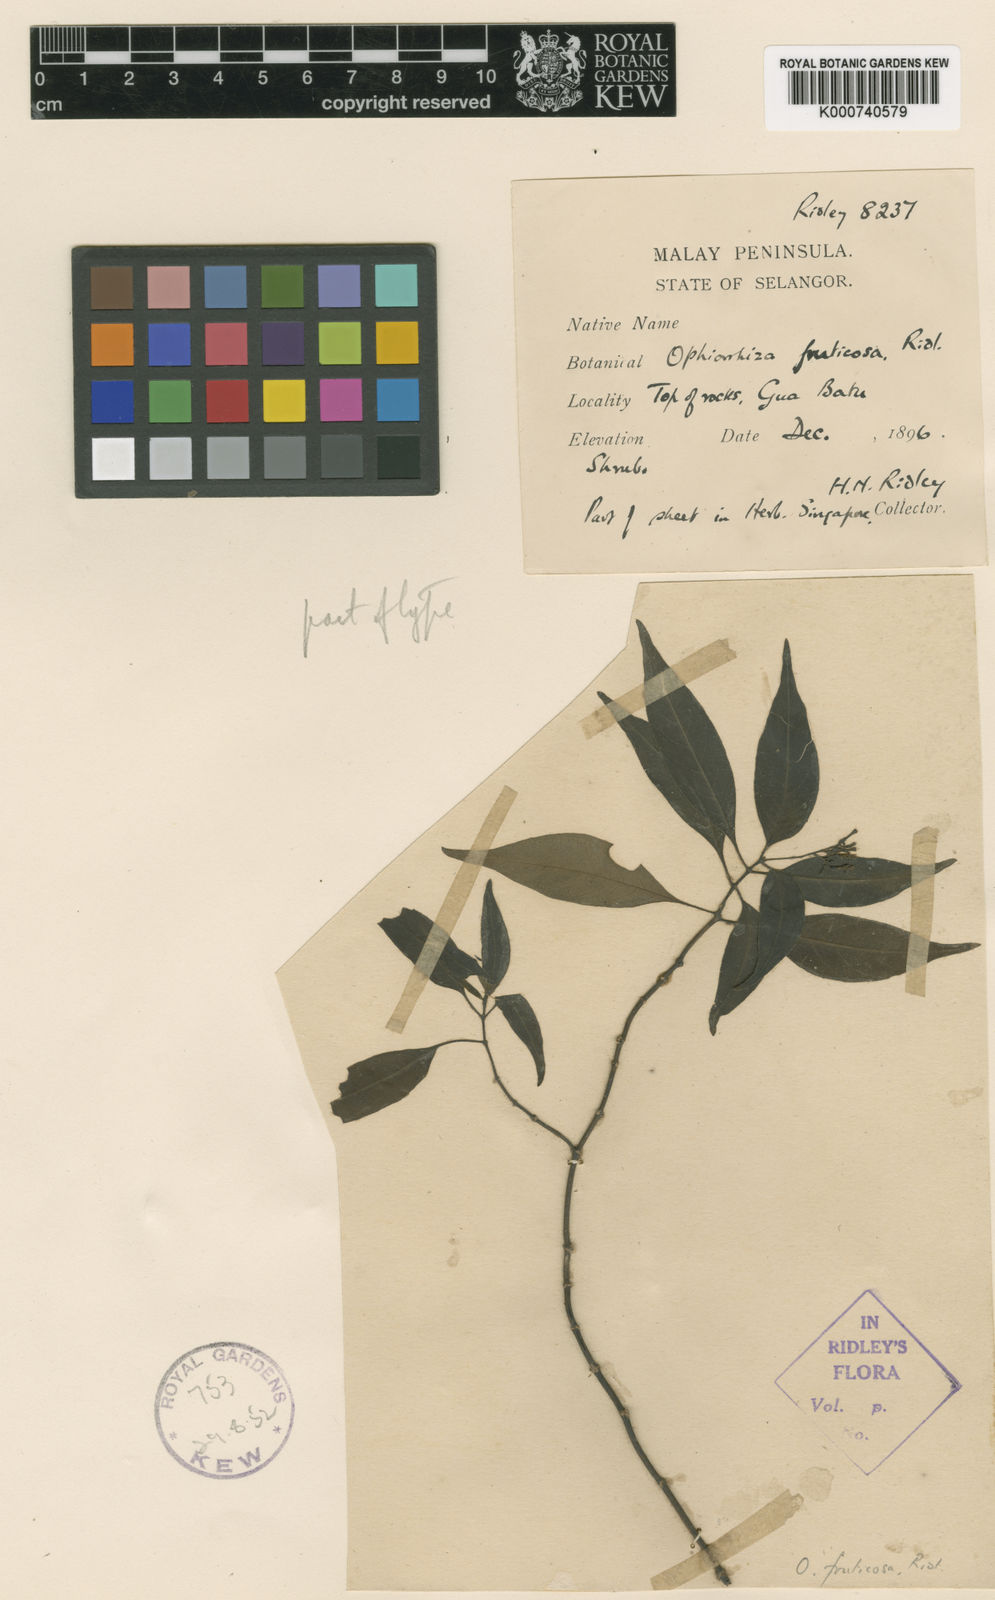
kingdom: Plantae
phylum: Tracheophyta
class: Magnoliopsida
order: Gentianales
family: Rubiaceae
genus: Ophiorrhiza
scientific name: Ophiorrhiza fruticosa
